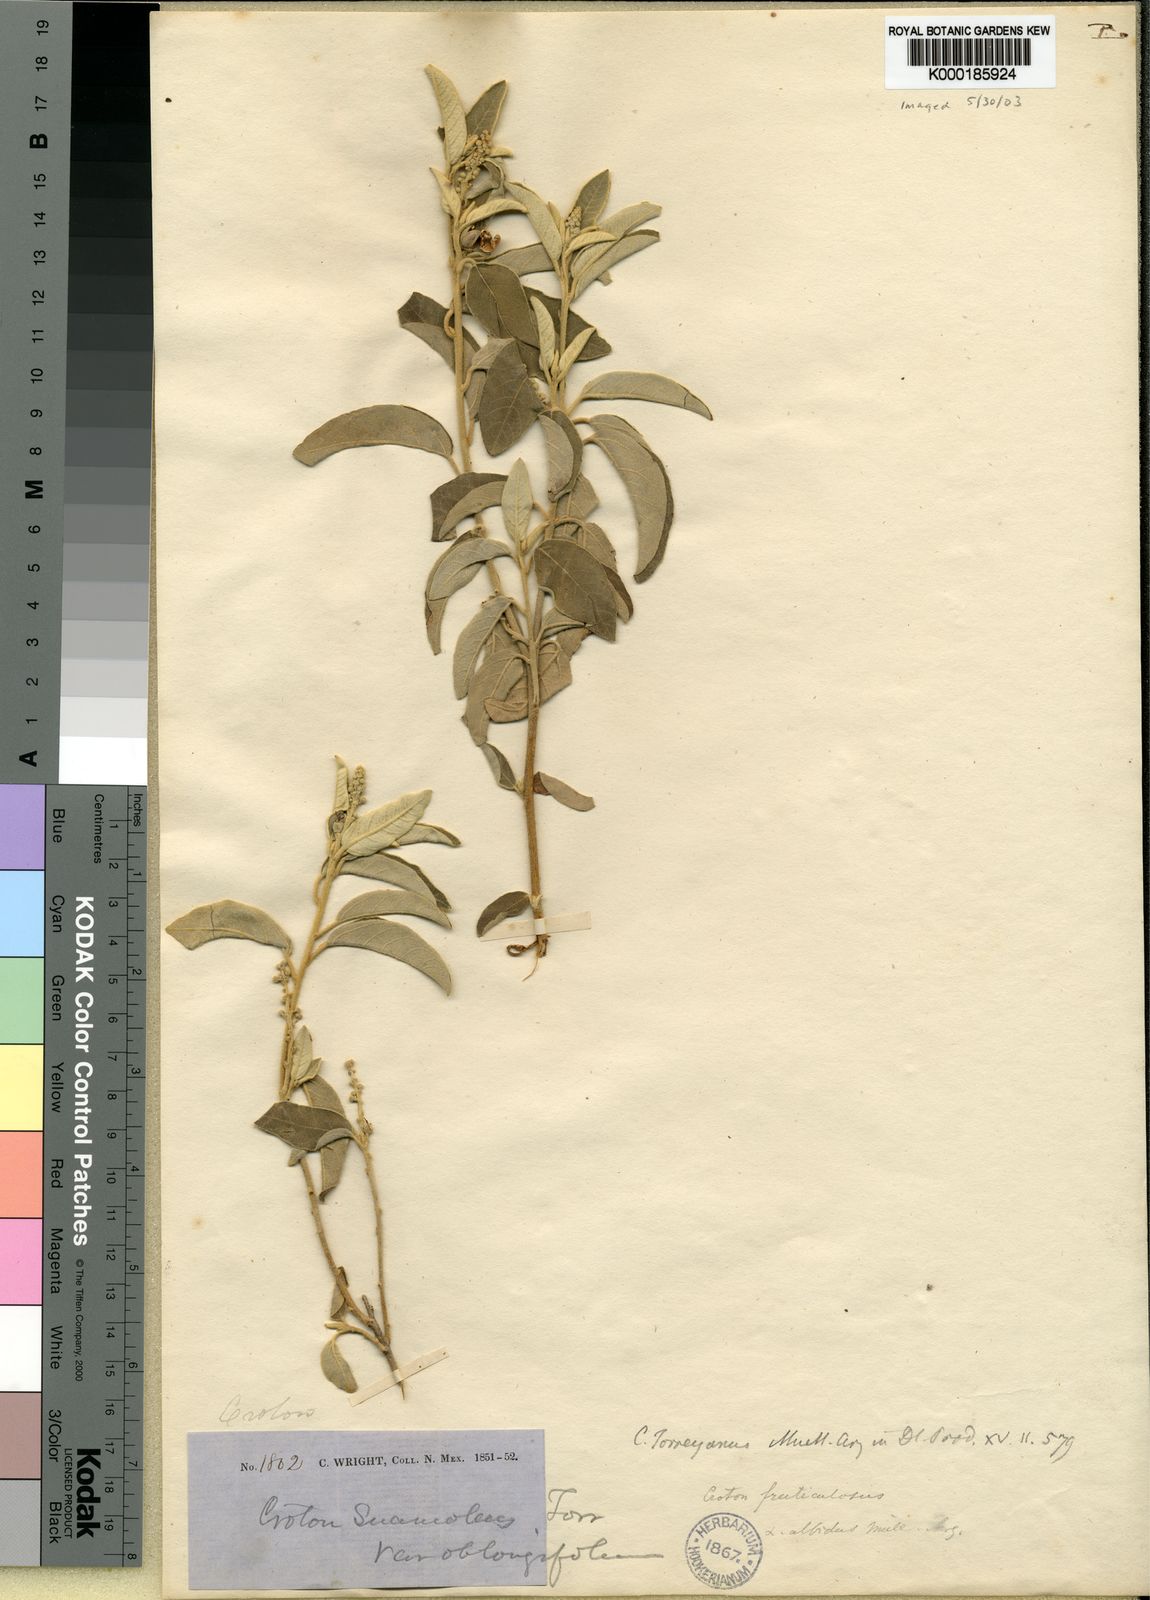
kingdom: Plantae
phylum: Tracheophyta
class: Magnoliopsida
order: Malpighiales
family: Euphorbiaceae
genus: Croton
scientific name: Croton
